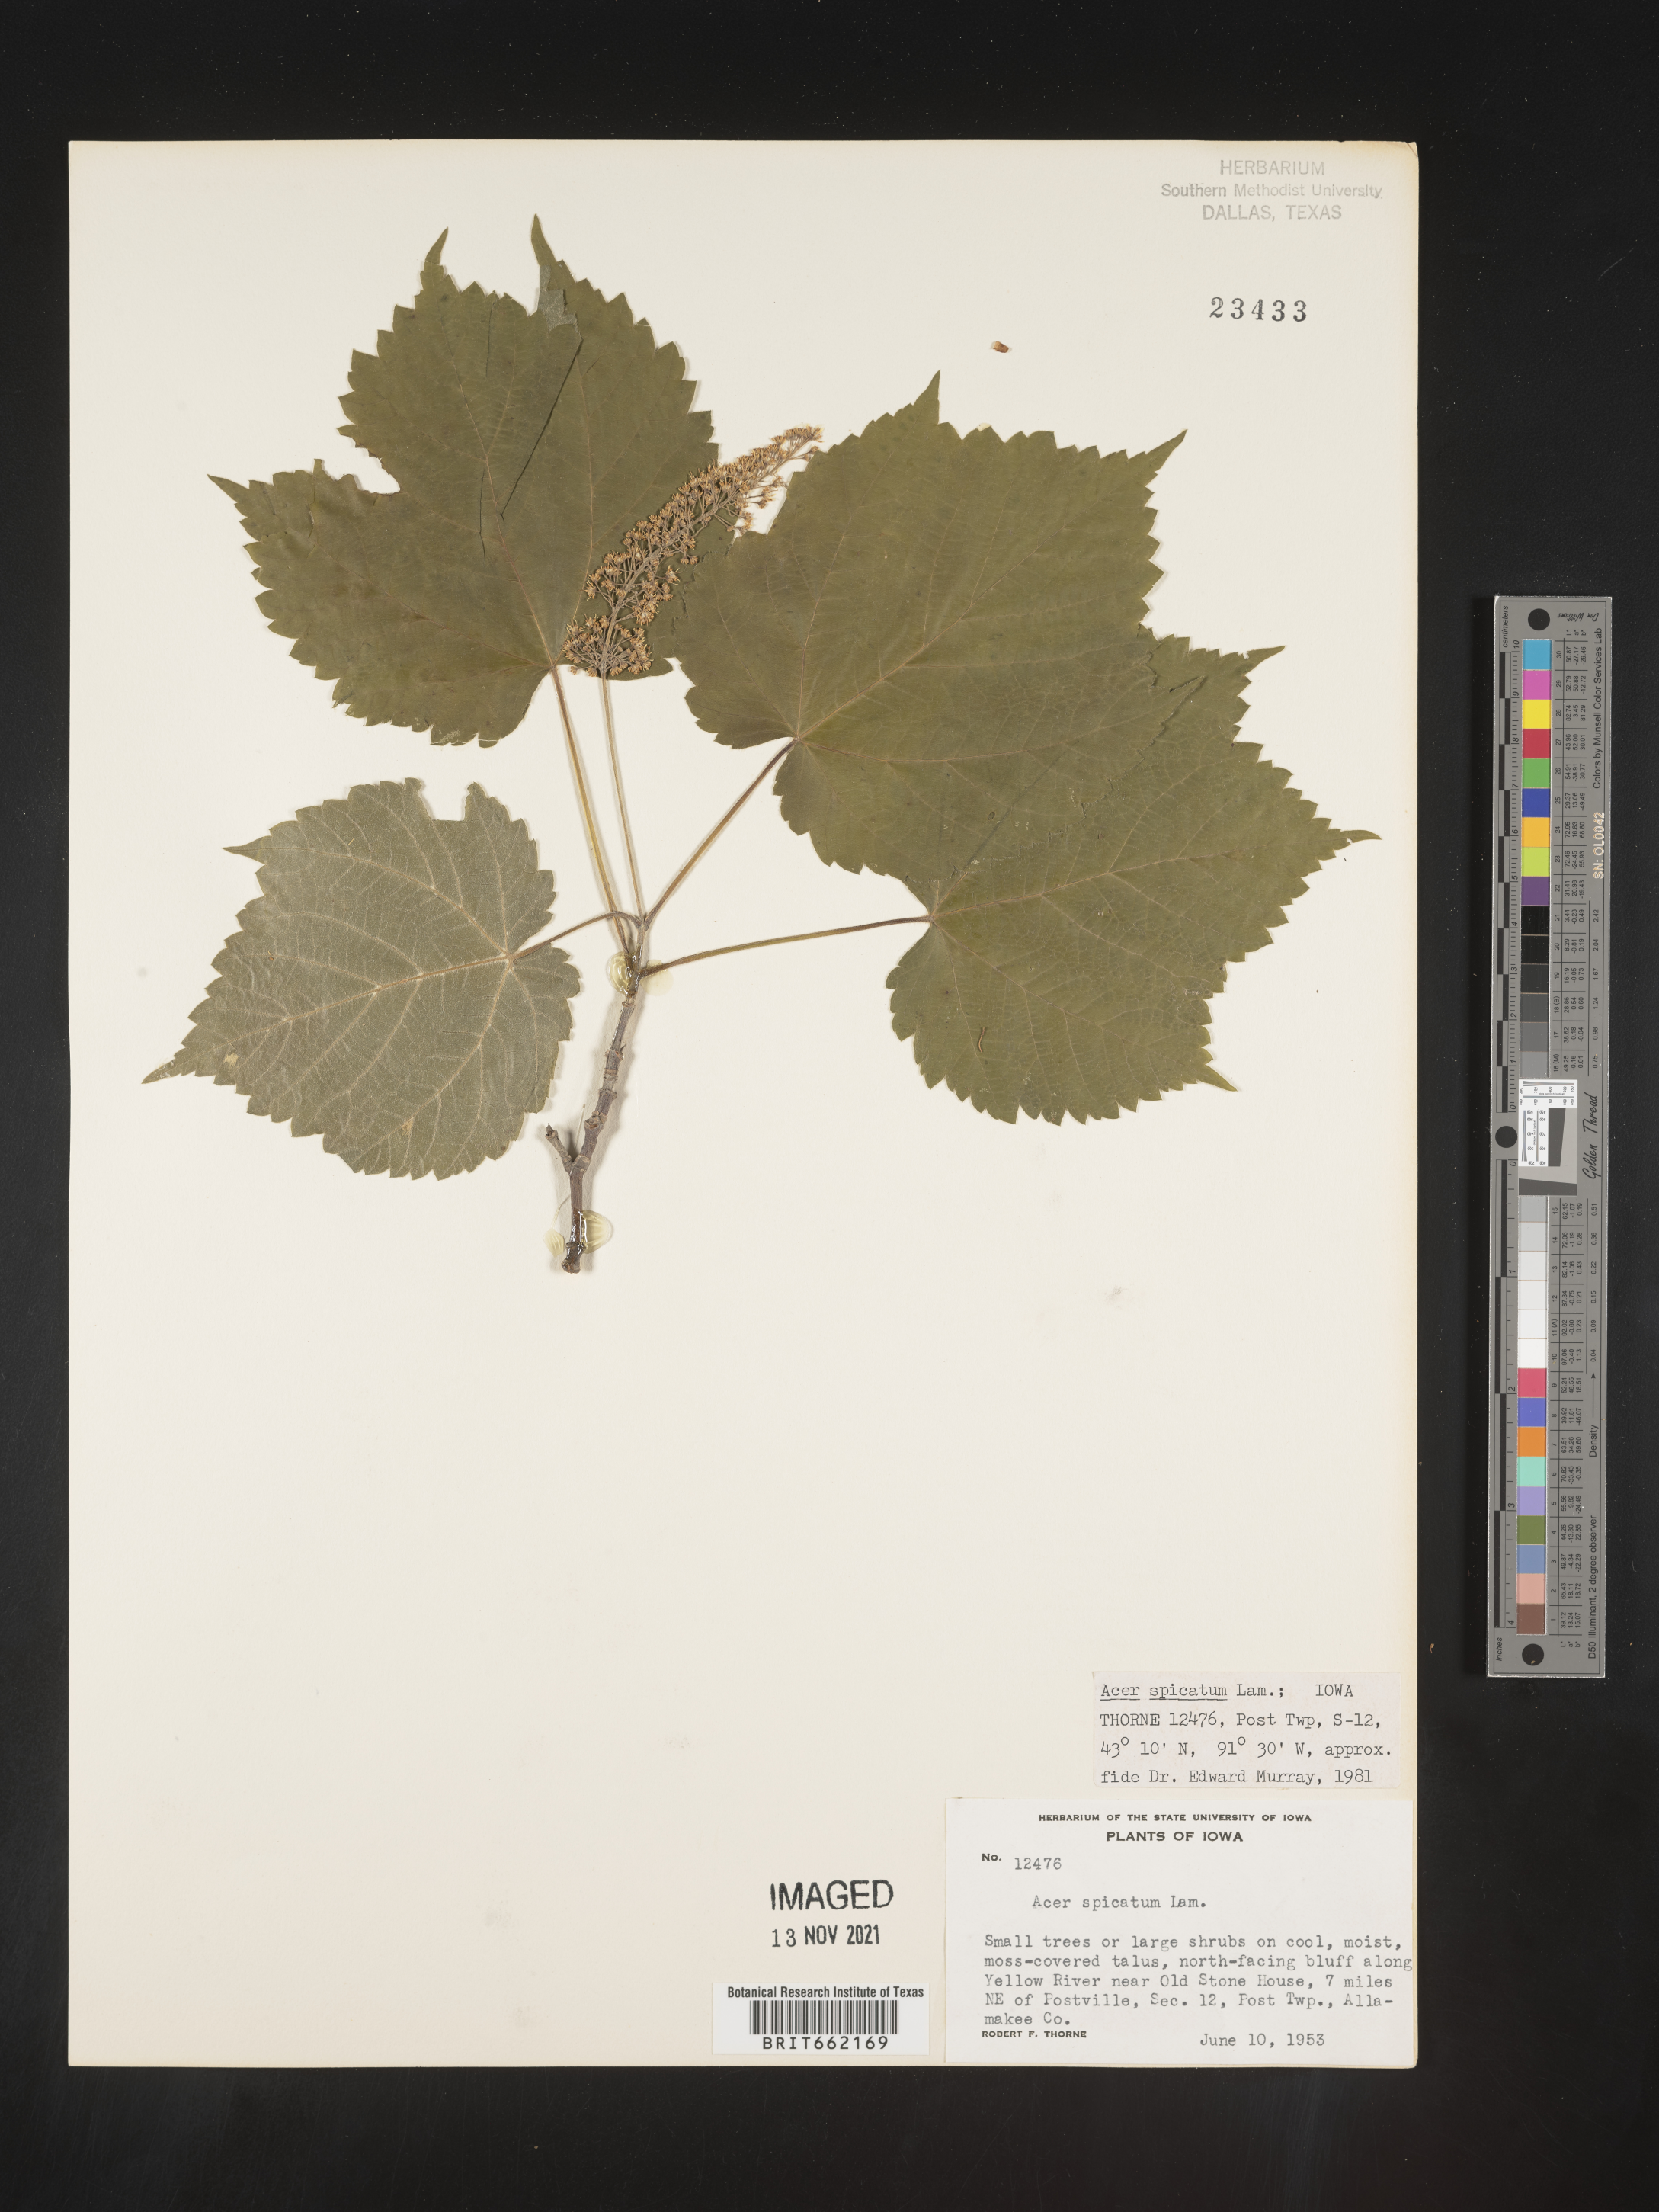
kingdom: Plantae
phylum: Tracheophyta
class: Magnoliopsida
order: Sapindales
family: Sapindaceae
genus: Acer
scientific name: Acer spicatum
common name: Mountain maple
